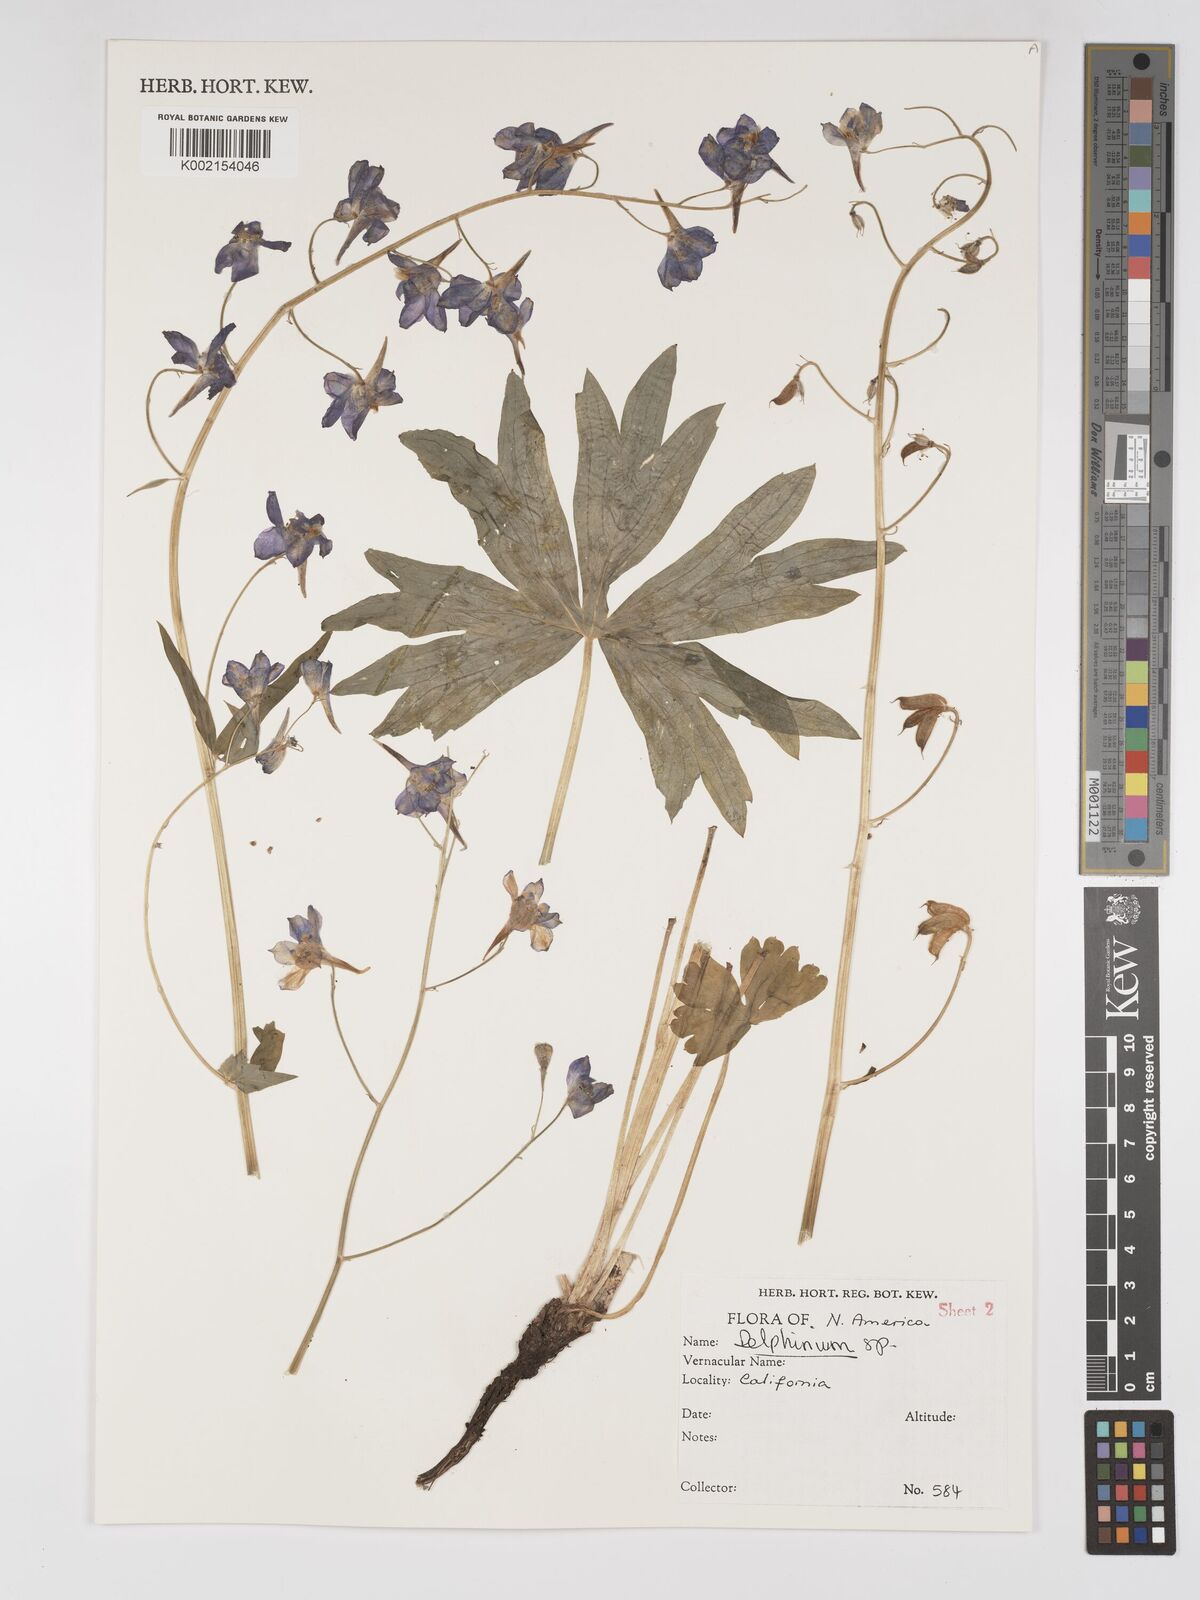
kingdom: Plantae
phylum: Tracheophyta
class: Magnoliopsida
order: Ranunculales
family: Ranunculaceae
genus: Delphinium
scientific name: Delphinium
